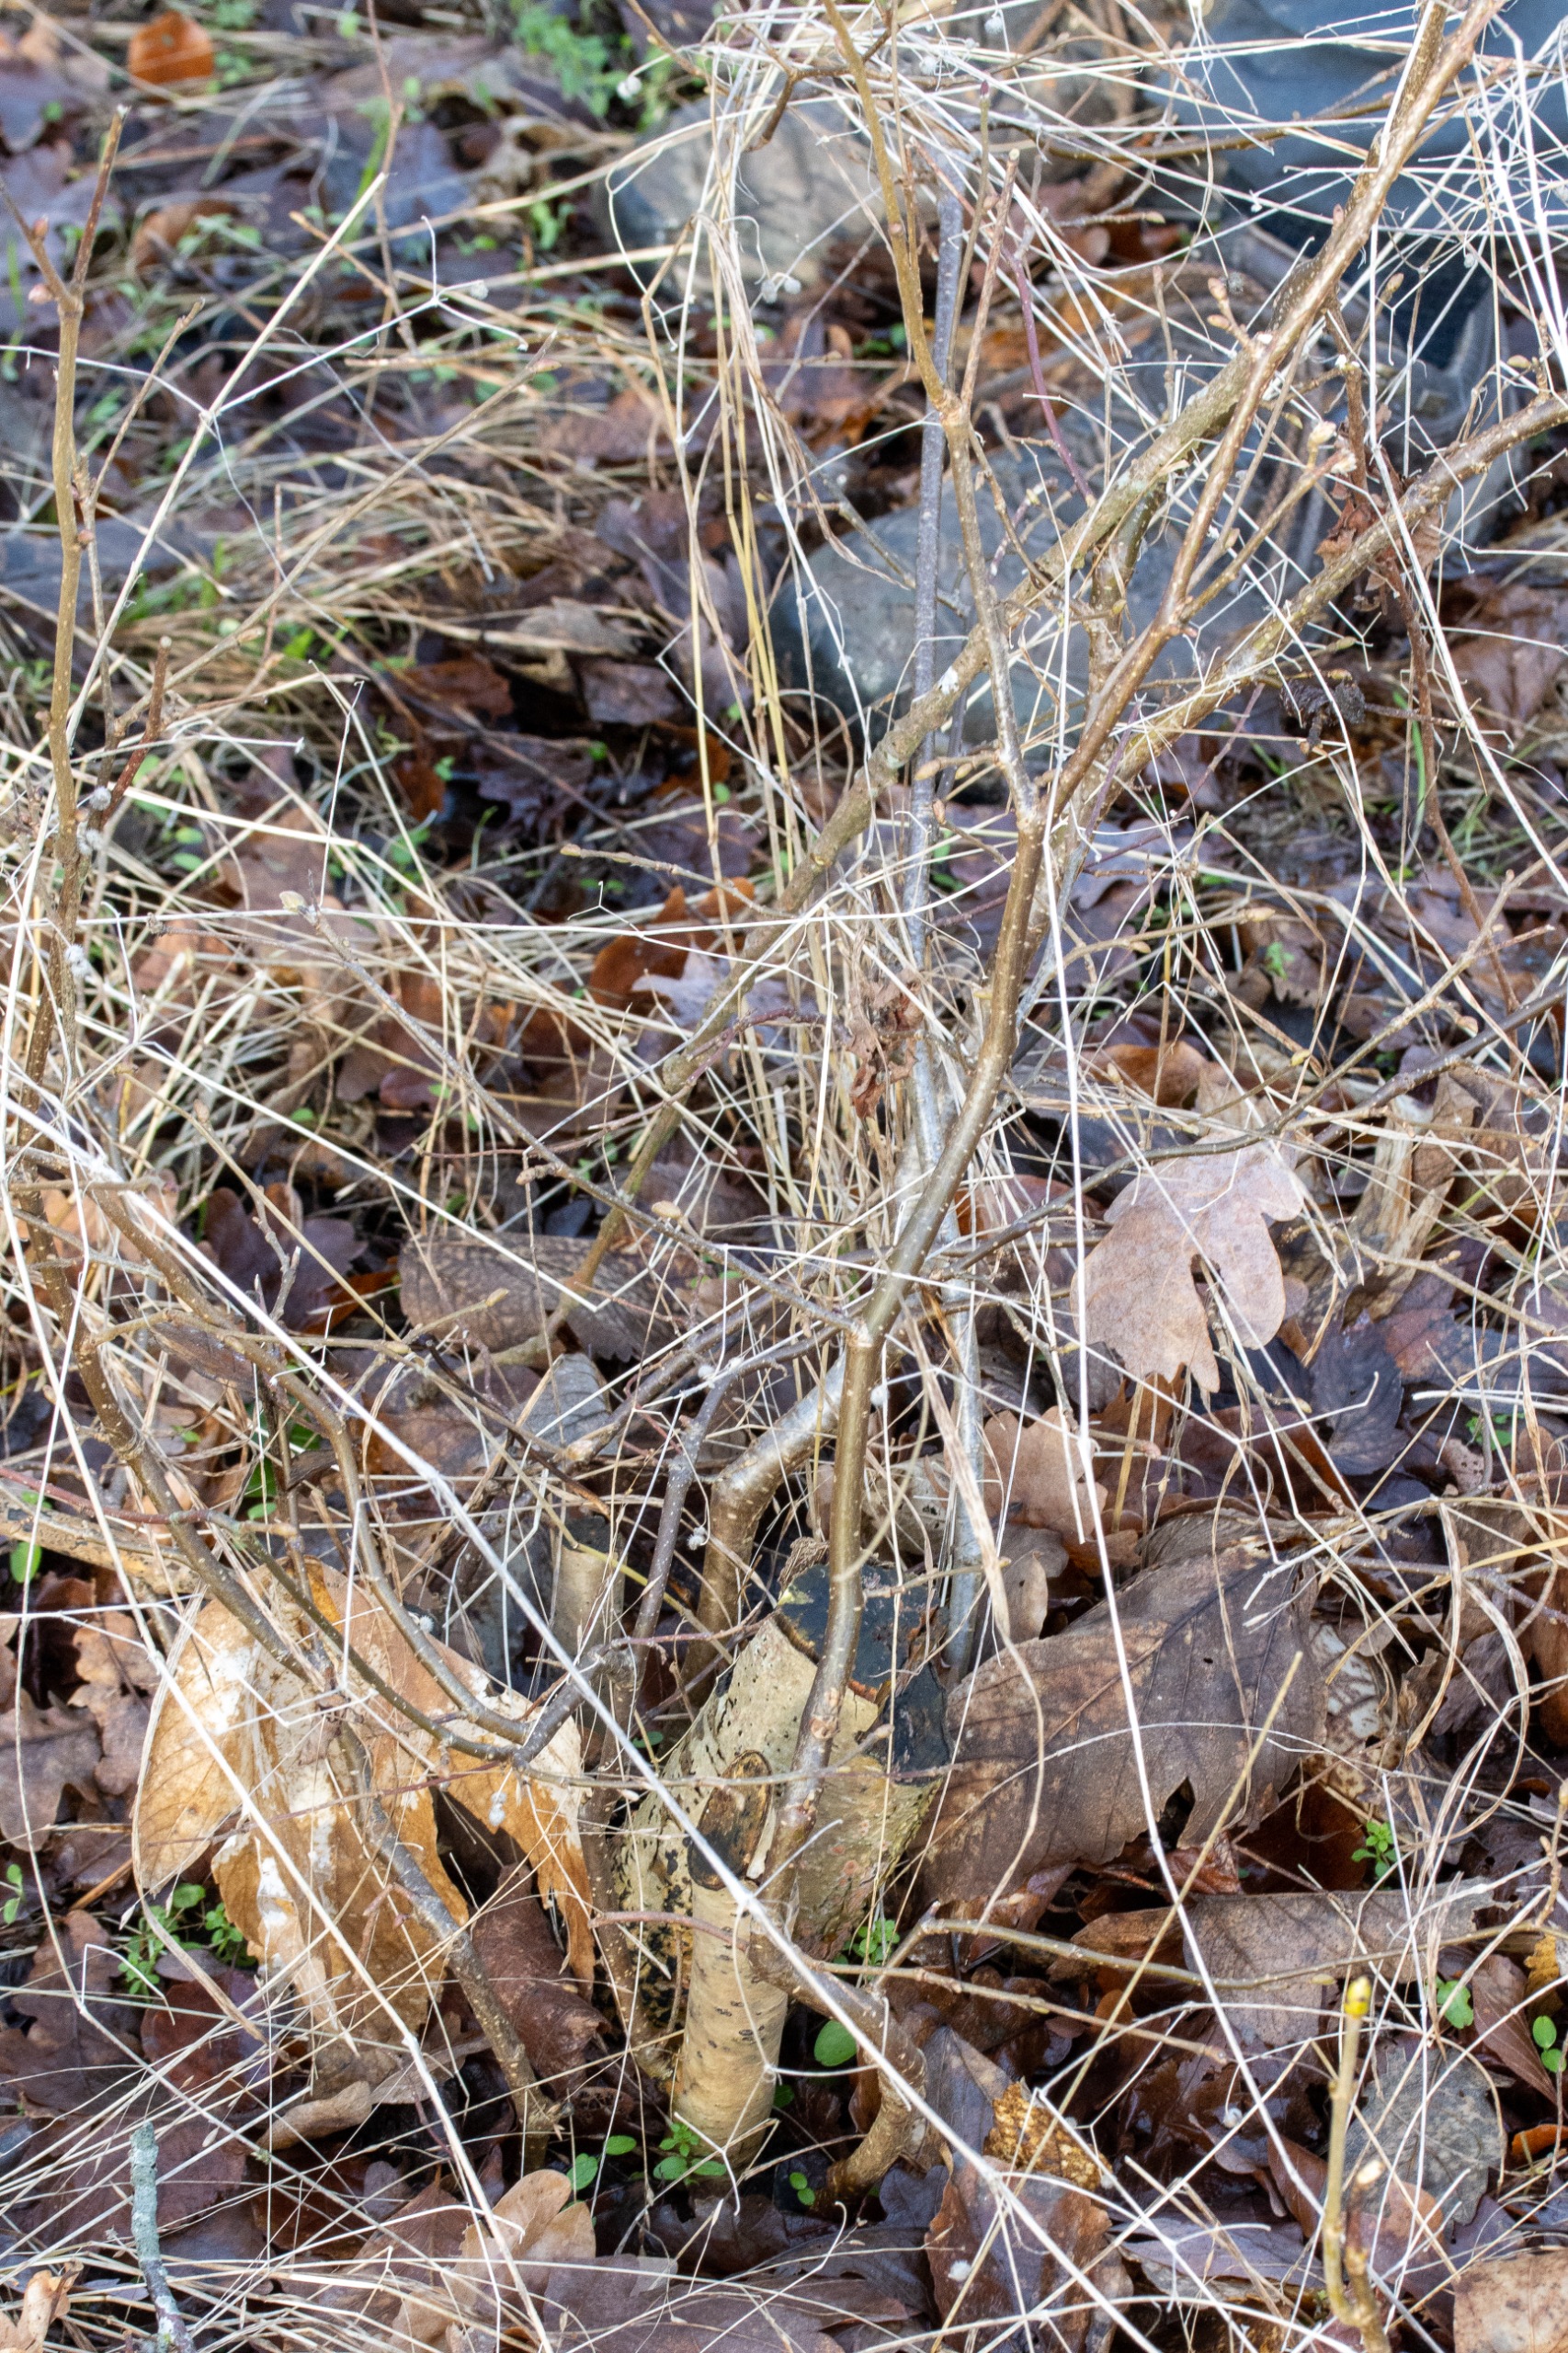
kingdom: Plantae
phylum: Tracheophyta
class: Magnoliopsida
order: Fagales
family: Betulaceae
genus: Corylus
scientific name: Corylus avellana
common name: Hassel
